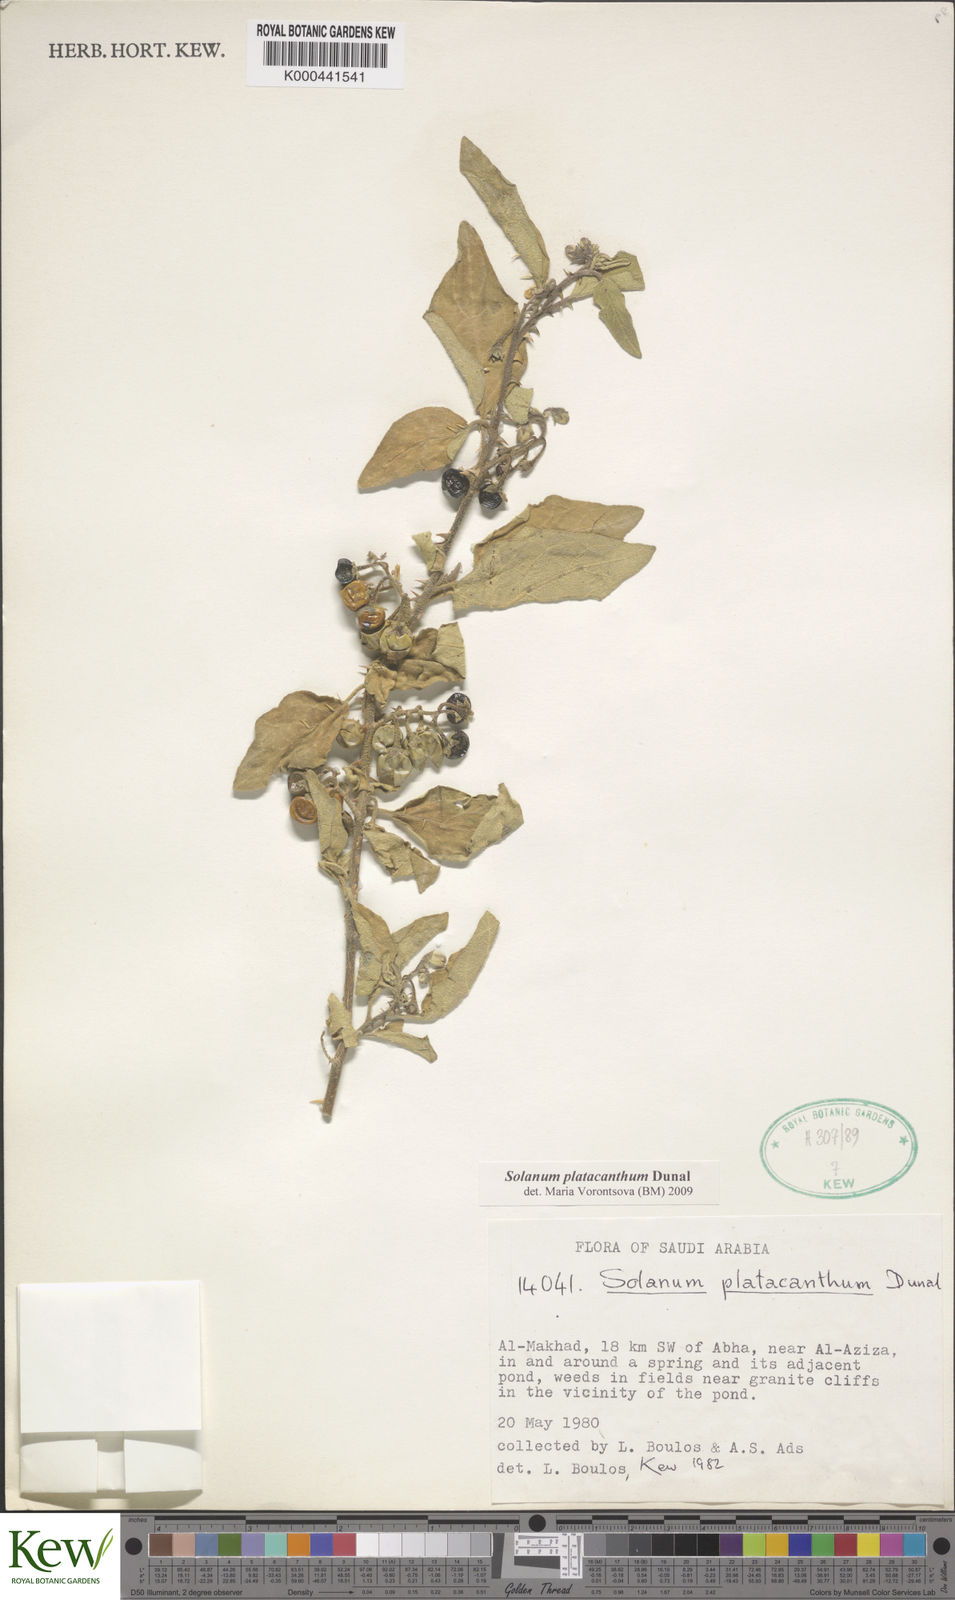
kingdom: Plantae
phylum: Tracheophyta
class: Magnoliopsida
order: Solanales
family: Solanaceae
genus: Solanum
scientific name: Solanum platacanthum
